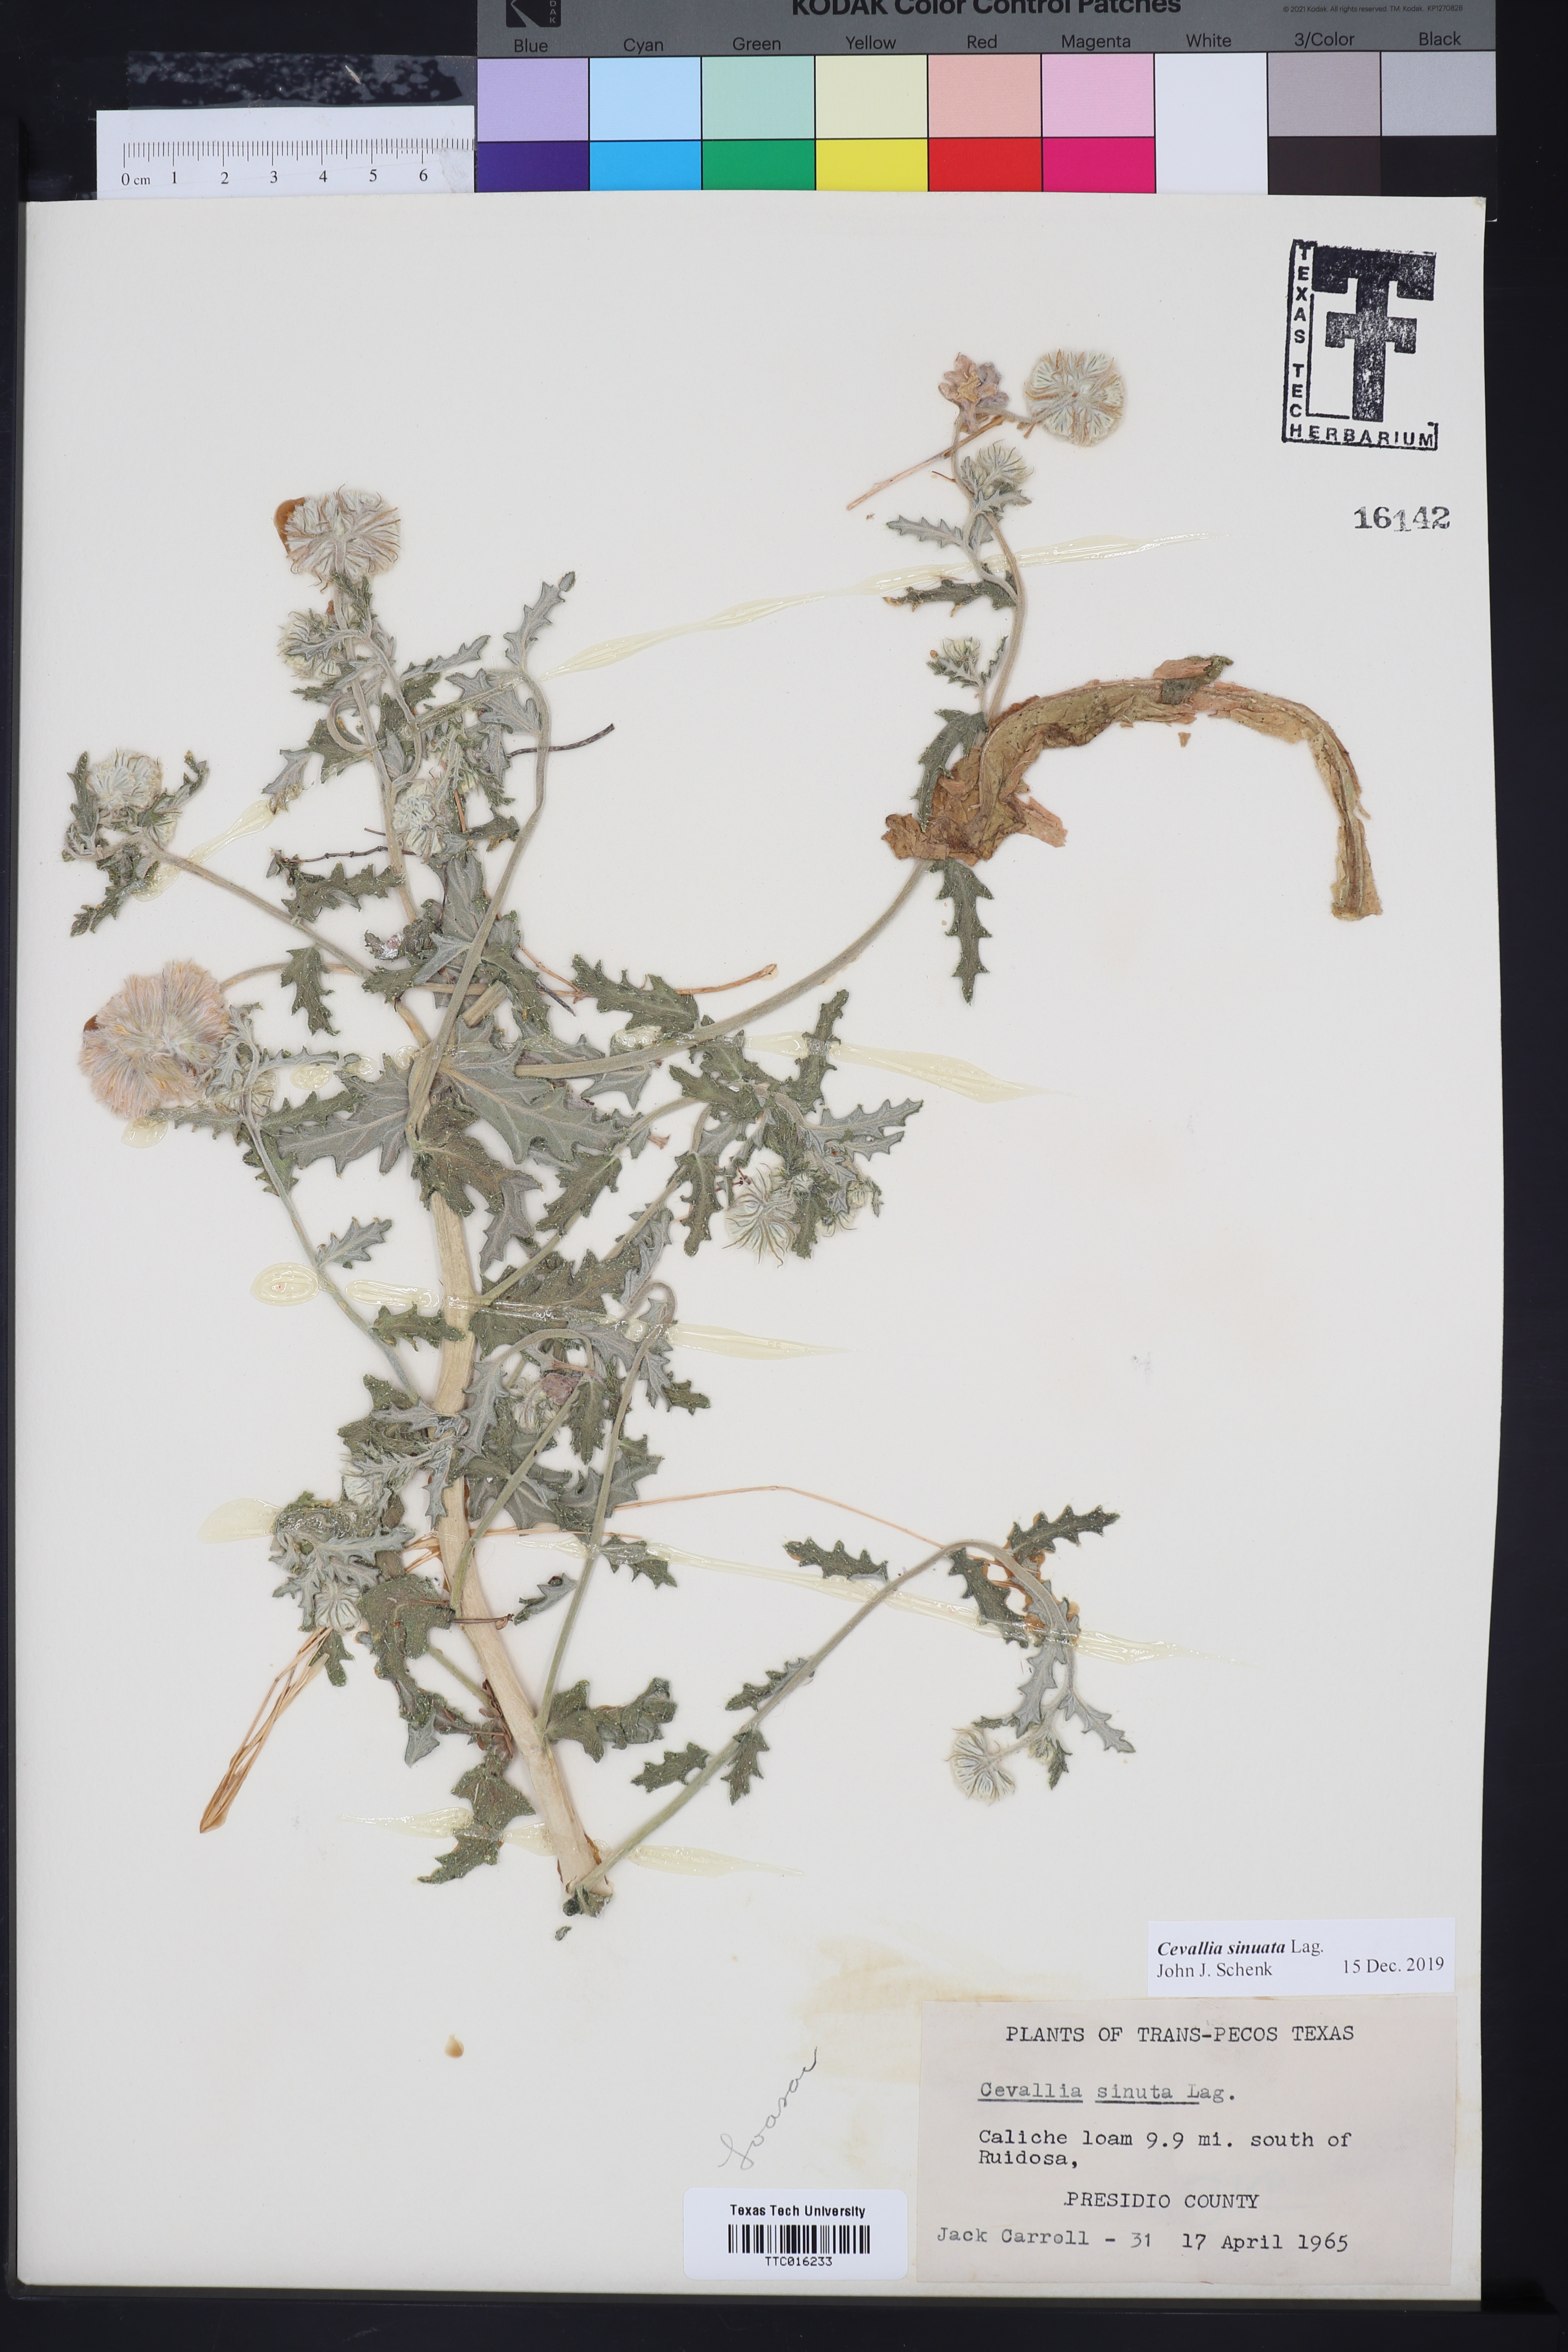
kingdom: Plantae
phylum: Tracheophyta
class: Magnoliopsida
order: Cornales
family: Loasaceae
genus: Cevallia
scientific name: Cevallia sinuata
